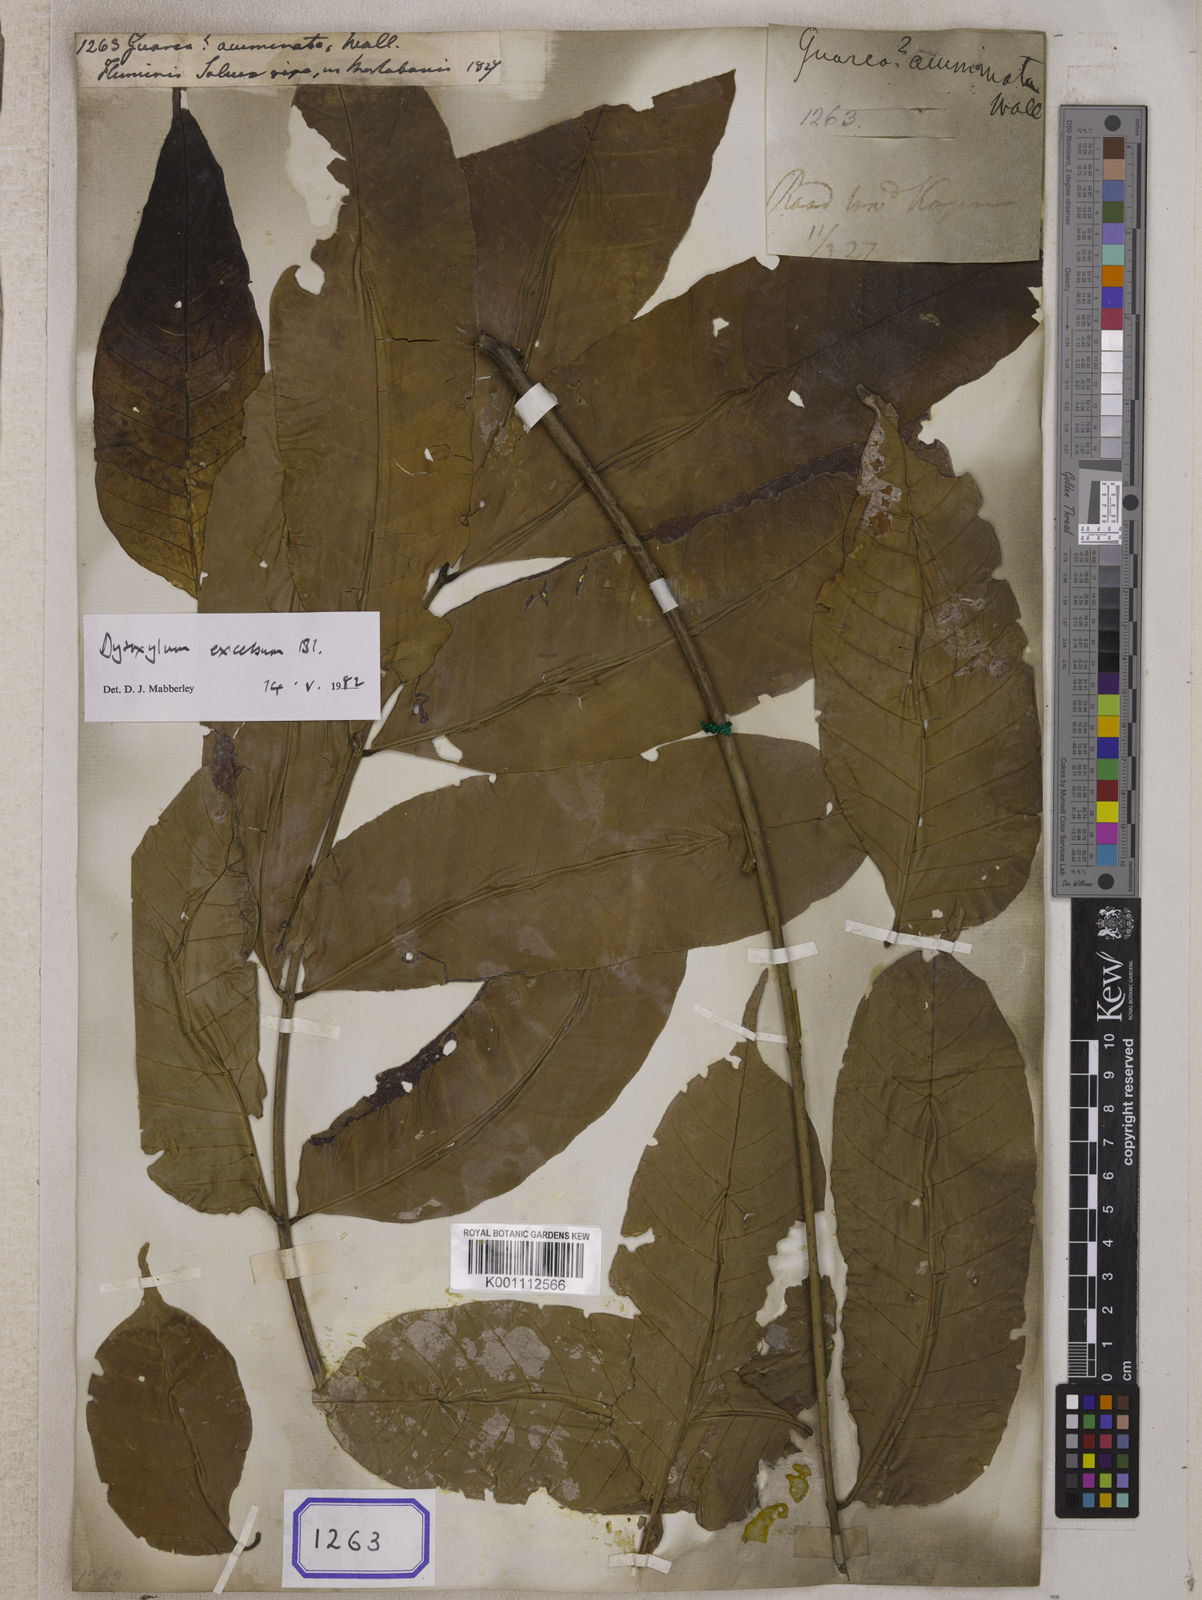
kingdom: Plantae
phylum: Tracheophyta
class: Magnoliopsida
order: Sapindales
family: Meliaceae
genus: Prasoxylon
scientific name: Prasoxylon excelsum
